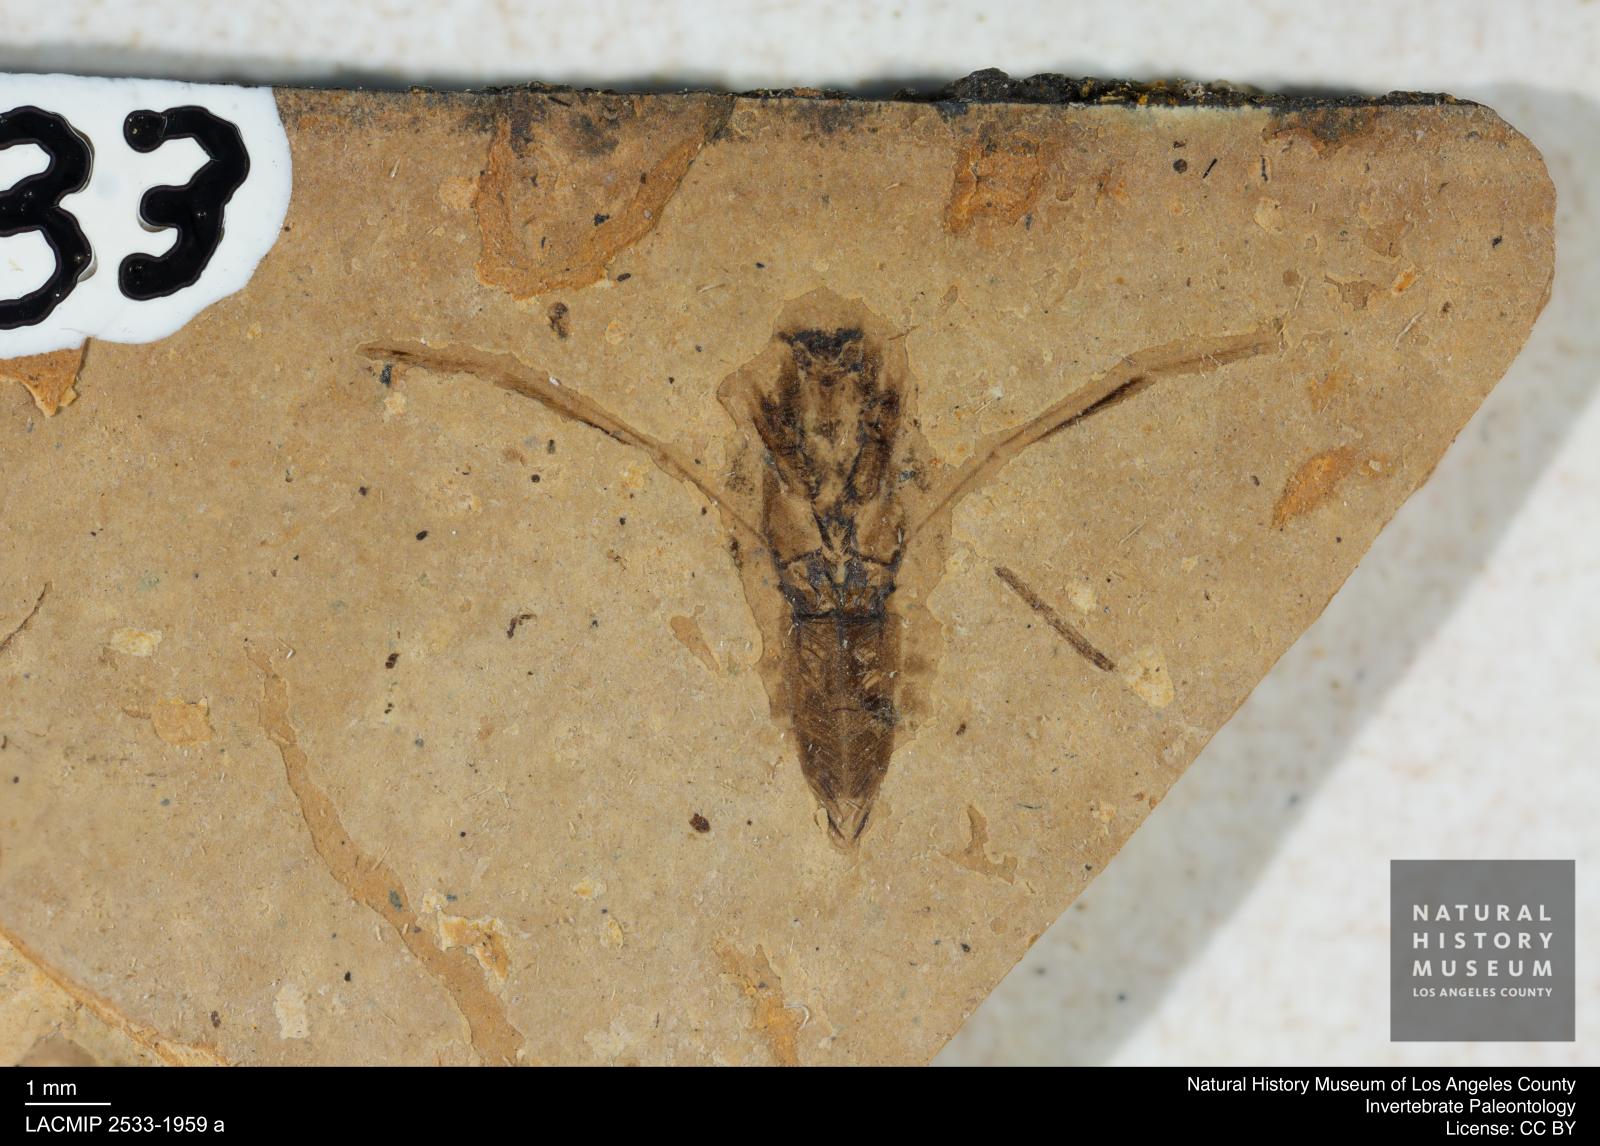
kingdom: Animalia
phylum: Arthropoda
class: Insecta
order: Hemiptera
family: Notonectidae
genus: Anisops
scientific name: Anisops Notonecta deichmuelleri
